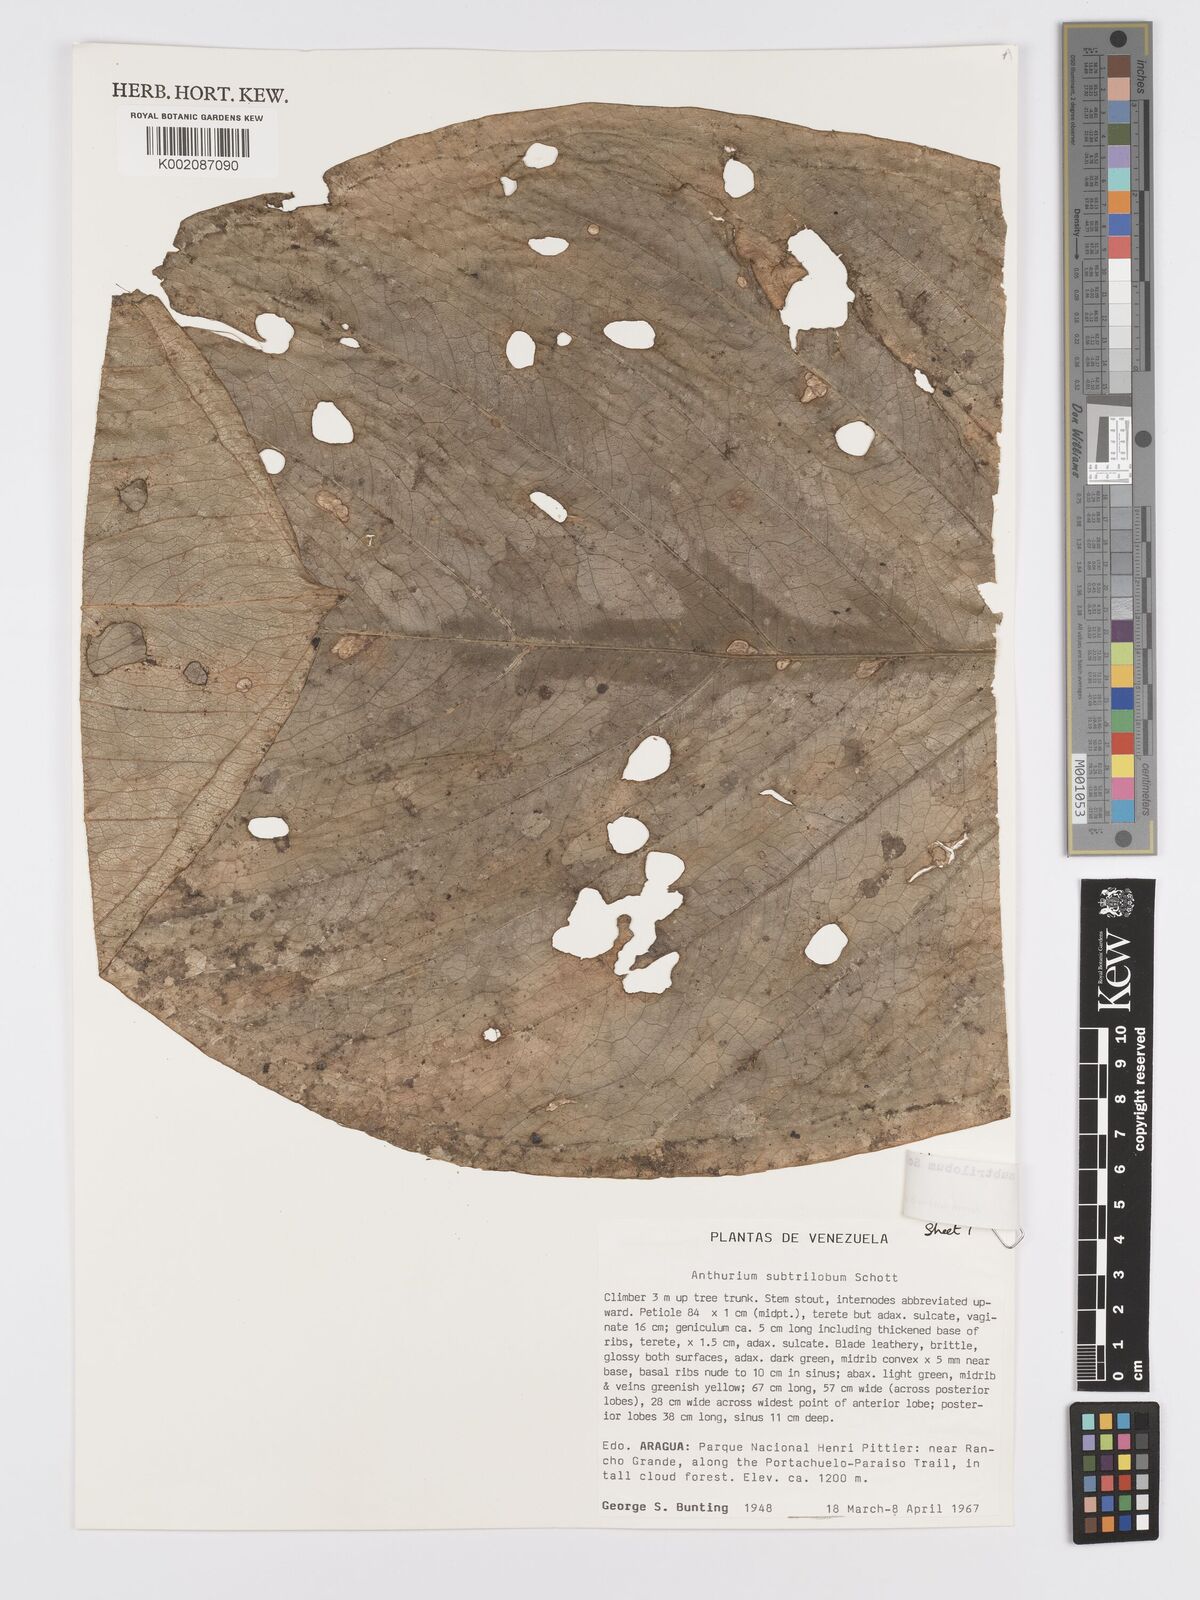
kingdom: Plantae
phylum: Tracheophyta
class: Liliopsida
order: Alismatales
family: Araceae
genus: Anthurium
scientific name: Anthurium subtrilobum
